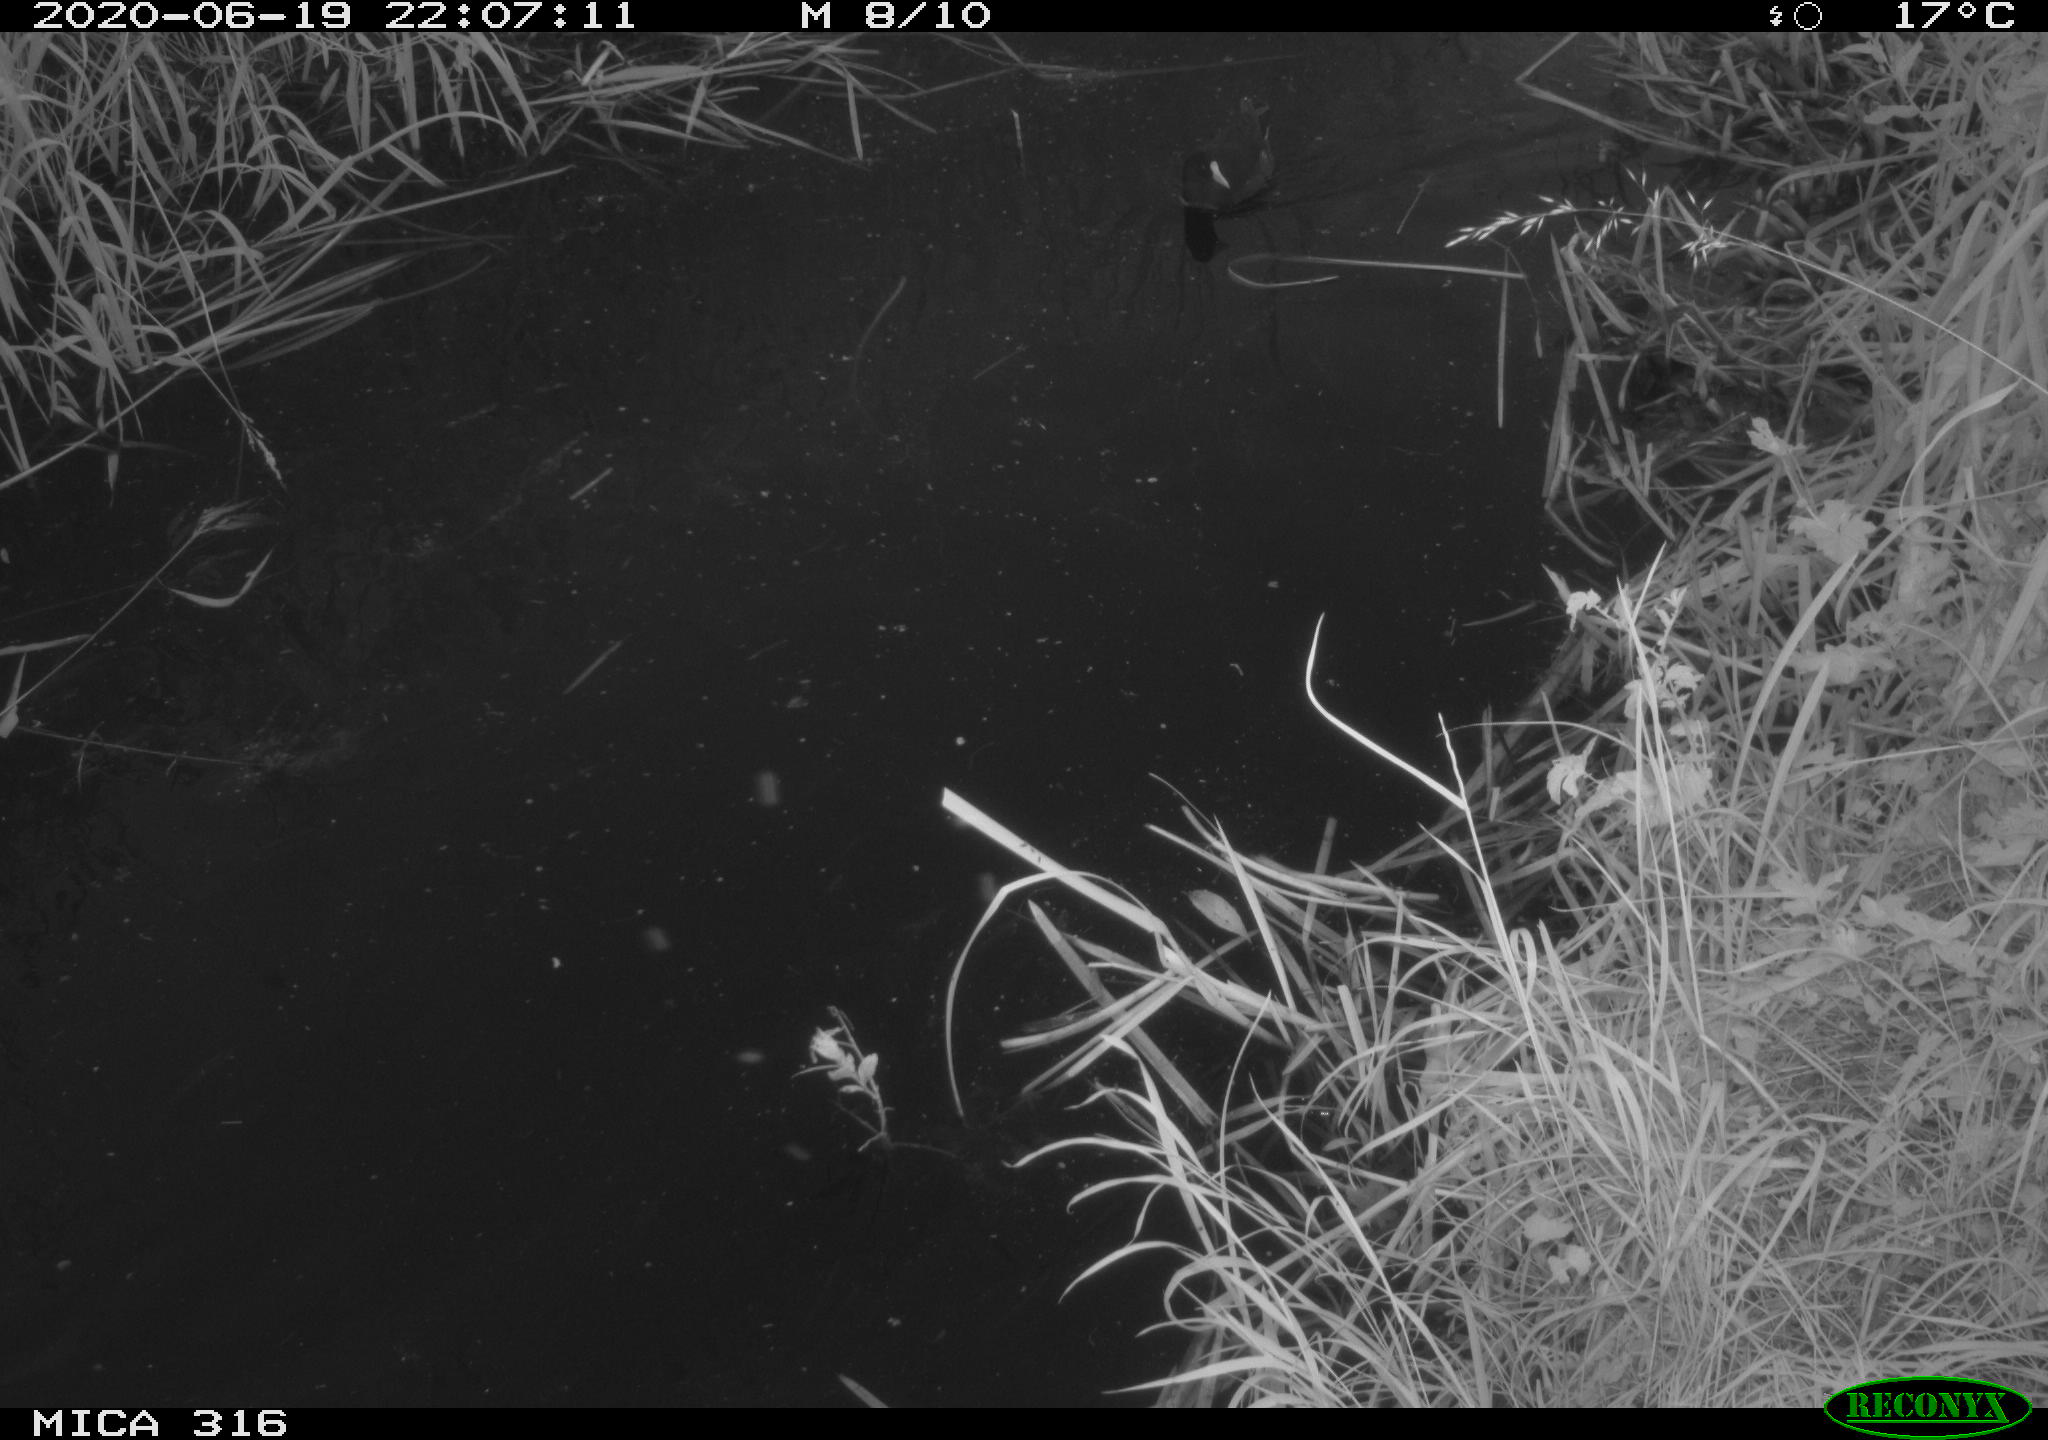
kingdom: Animalia
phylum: Chordata
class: Aves
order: Gruiformes
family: Rallidae
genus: Gallinula
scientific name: Gallinula chloropus
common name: Common moorhen
